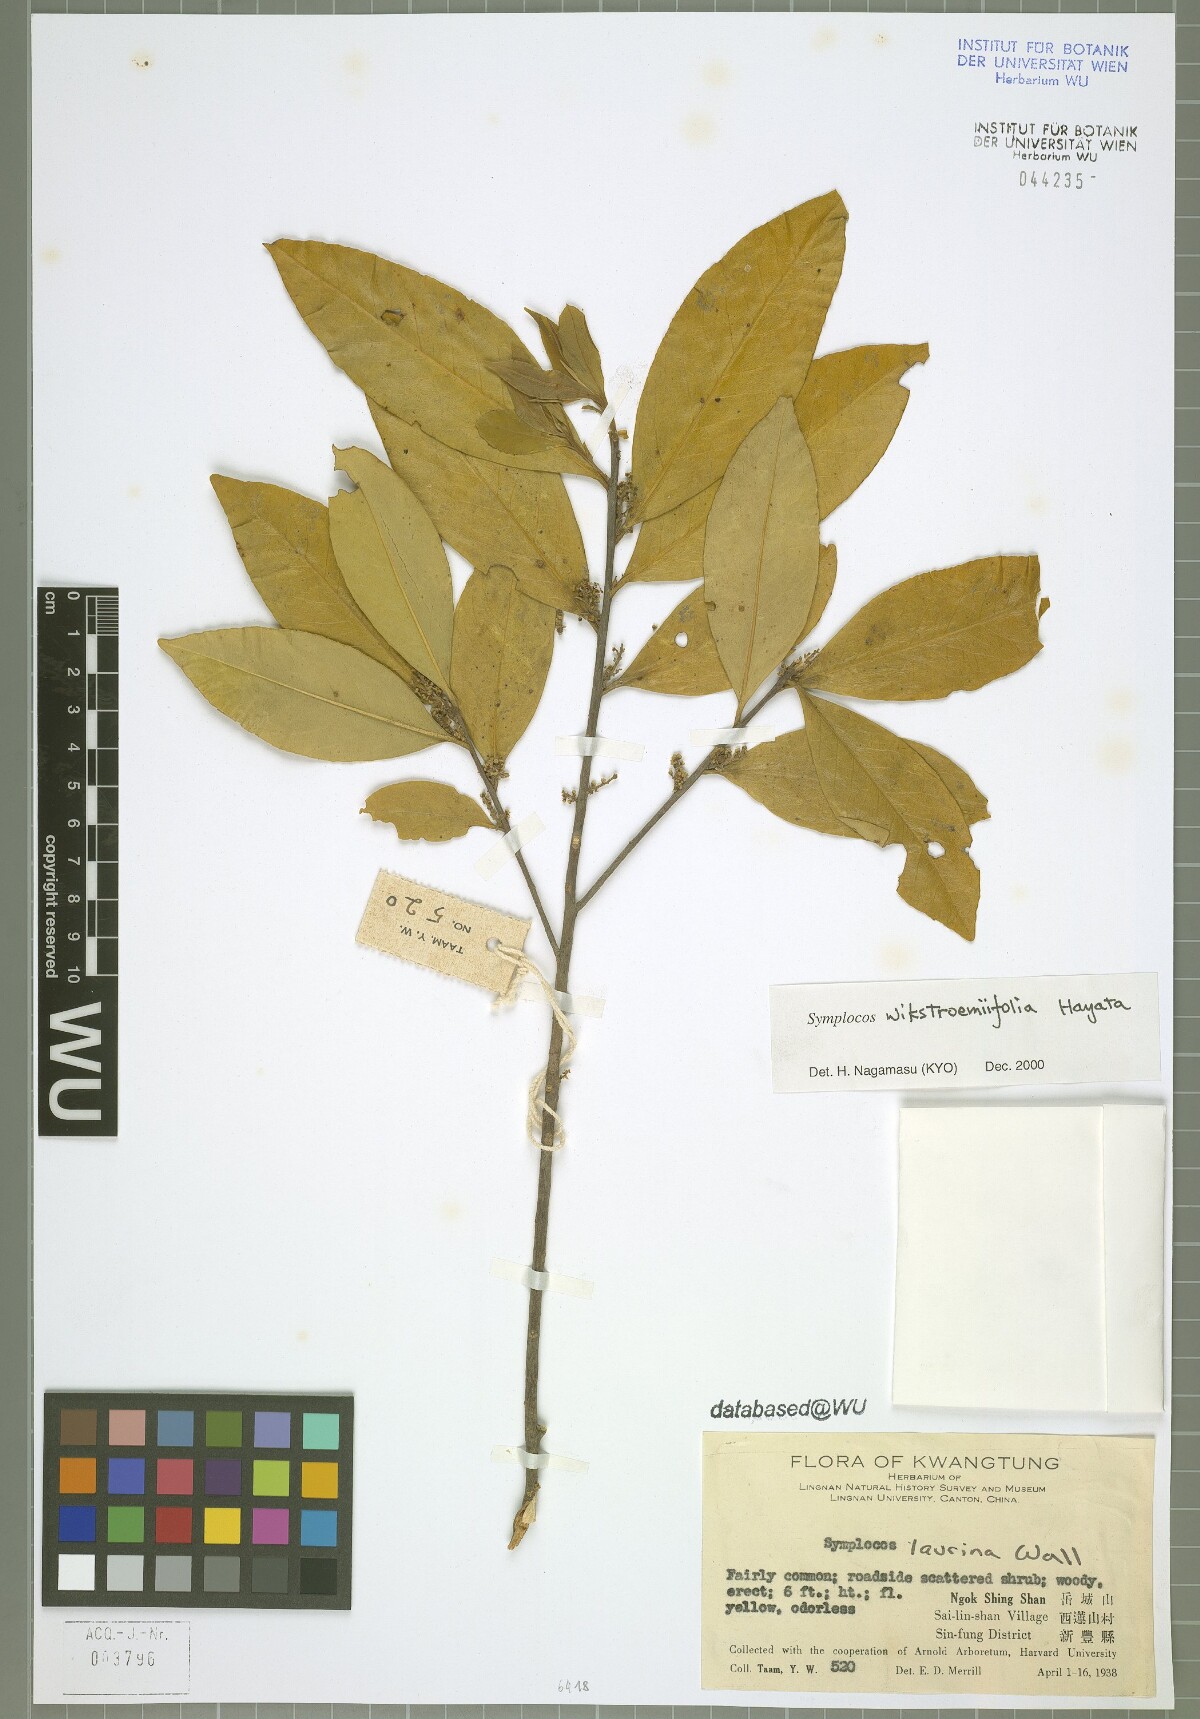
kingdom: Plantae
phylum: Tracheophyta
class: Magnoliopsida
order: Ericales
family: Symplocaceae
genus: Symplocos
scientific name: Symplocos wikstroemiifolia
